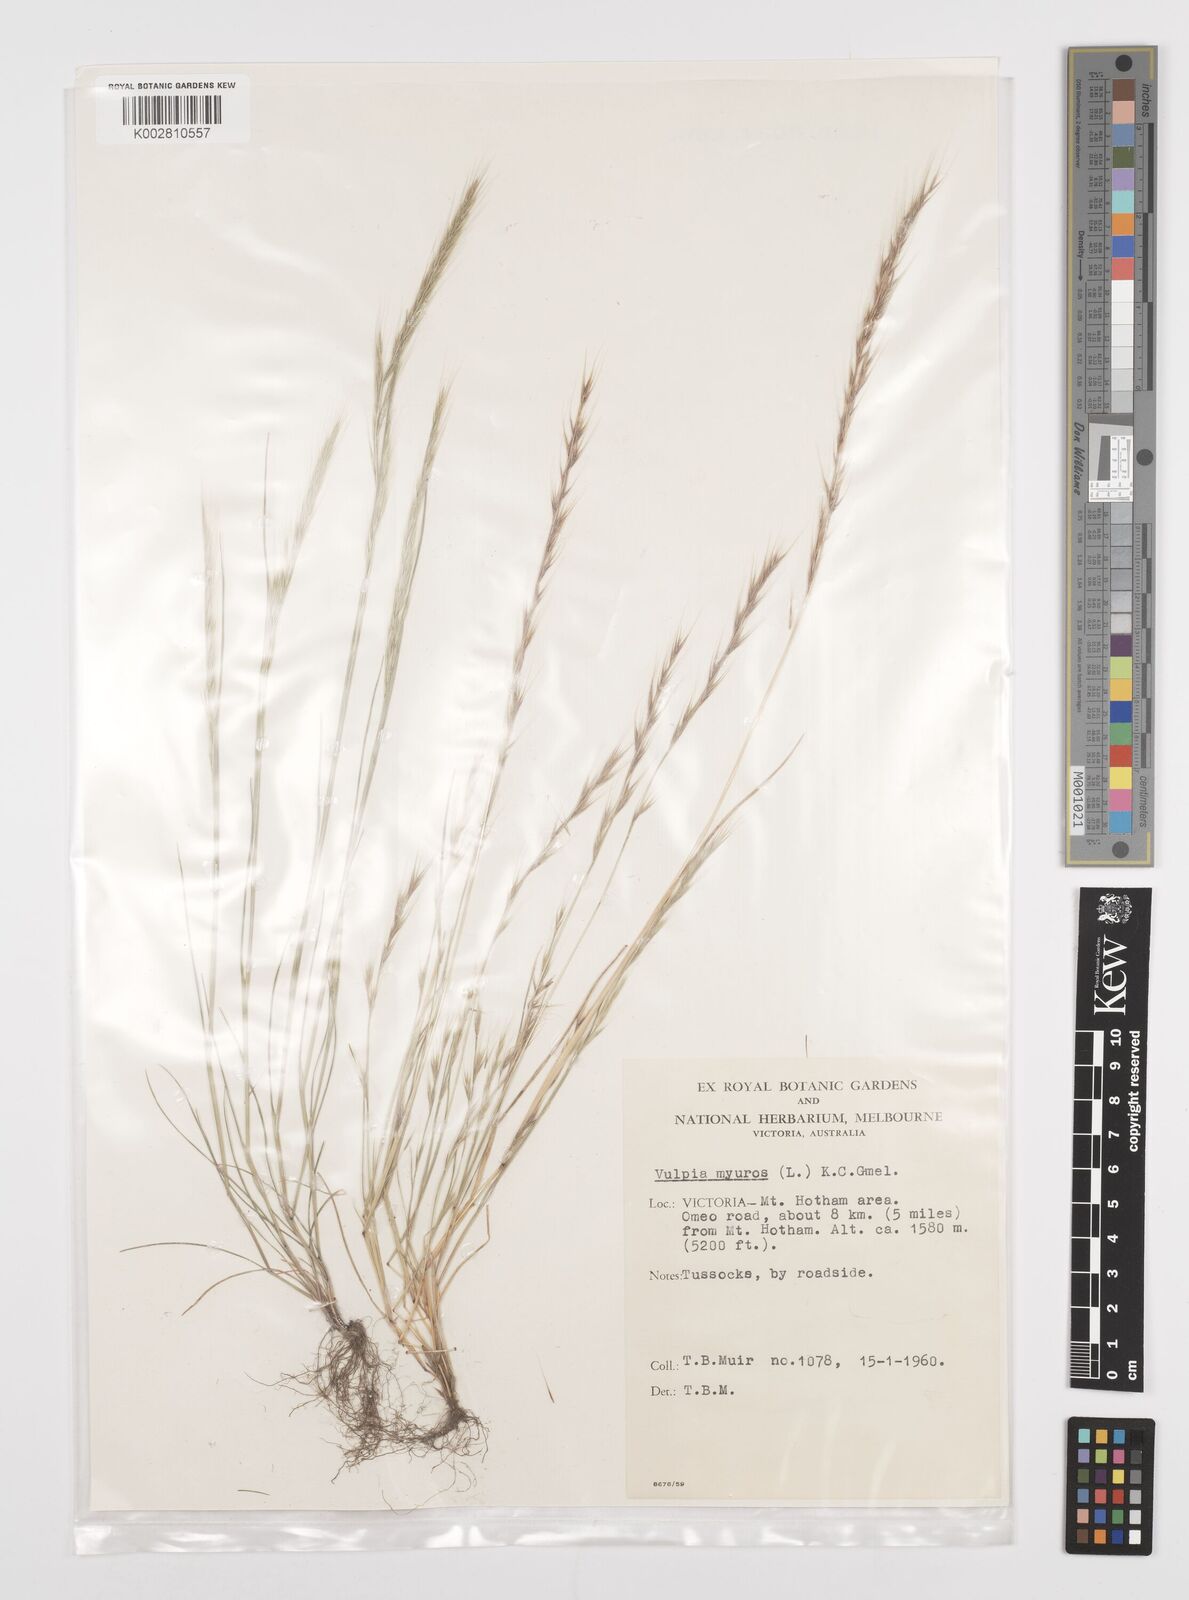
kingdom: Plantae
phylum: Tracheophyta
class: Liliopsida
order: Poales
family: Poaceae
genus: Festuca
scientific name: Festuca myuros
